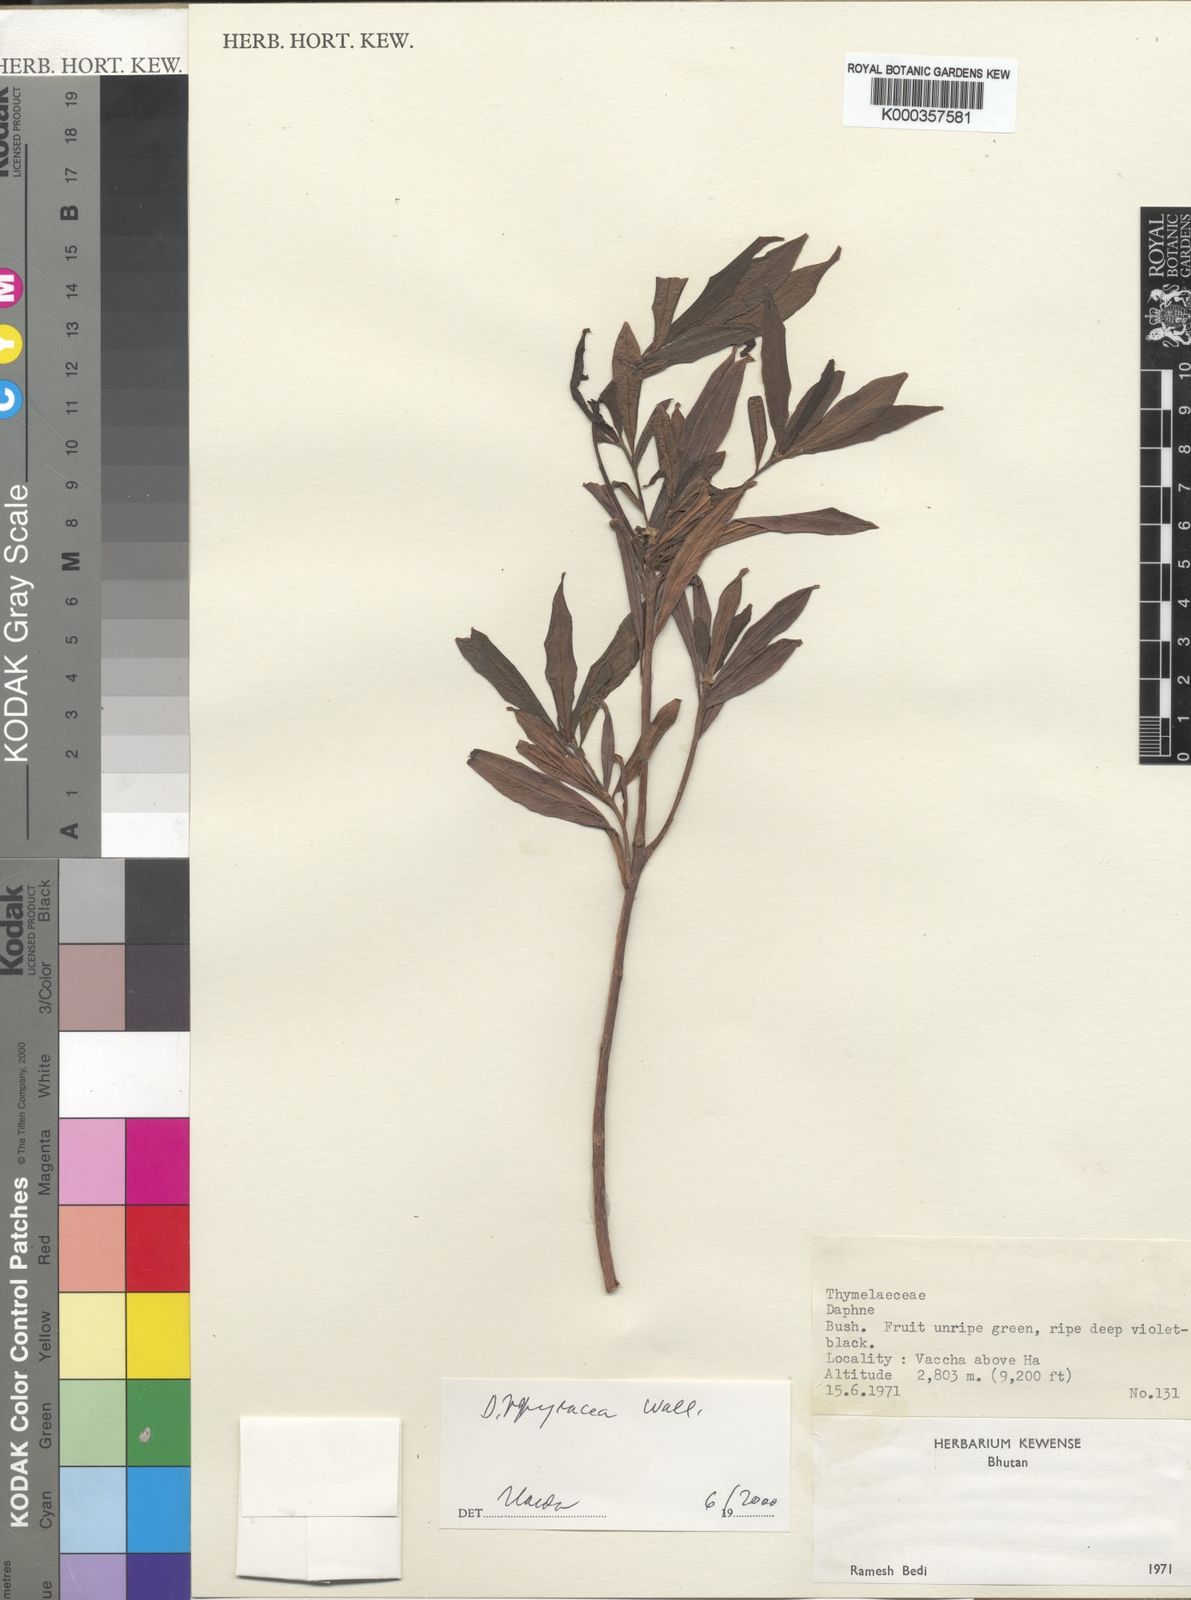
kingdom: Plantae
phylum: Tracheophyta
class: Magnoliopsida
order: Malvales
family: Thymelaeaceae
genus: Daphne
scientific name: Daphne
